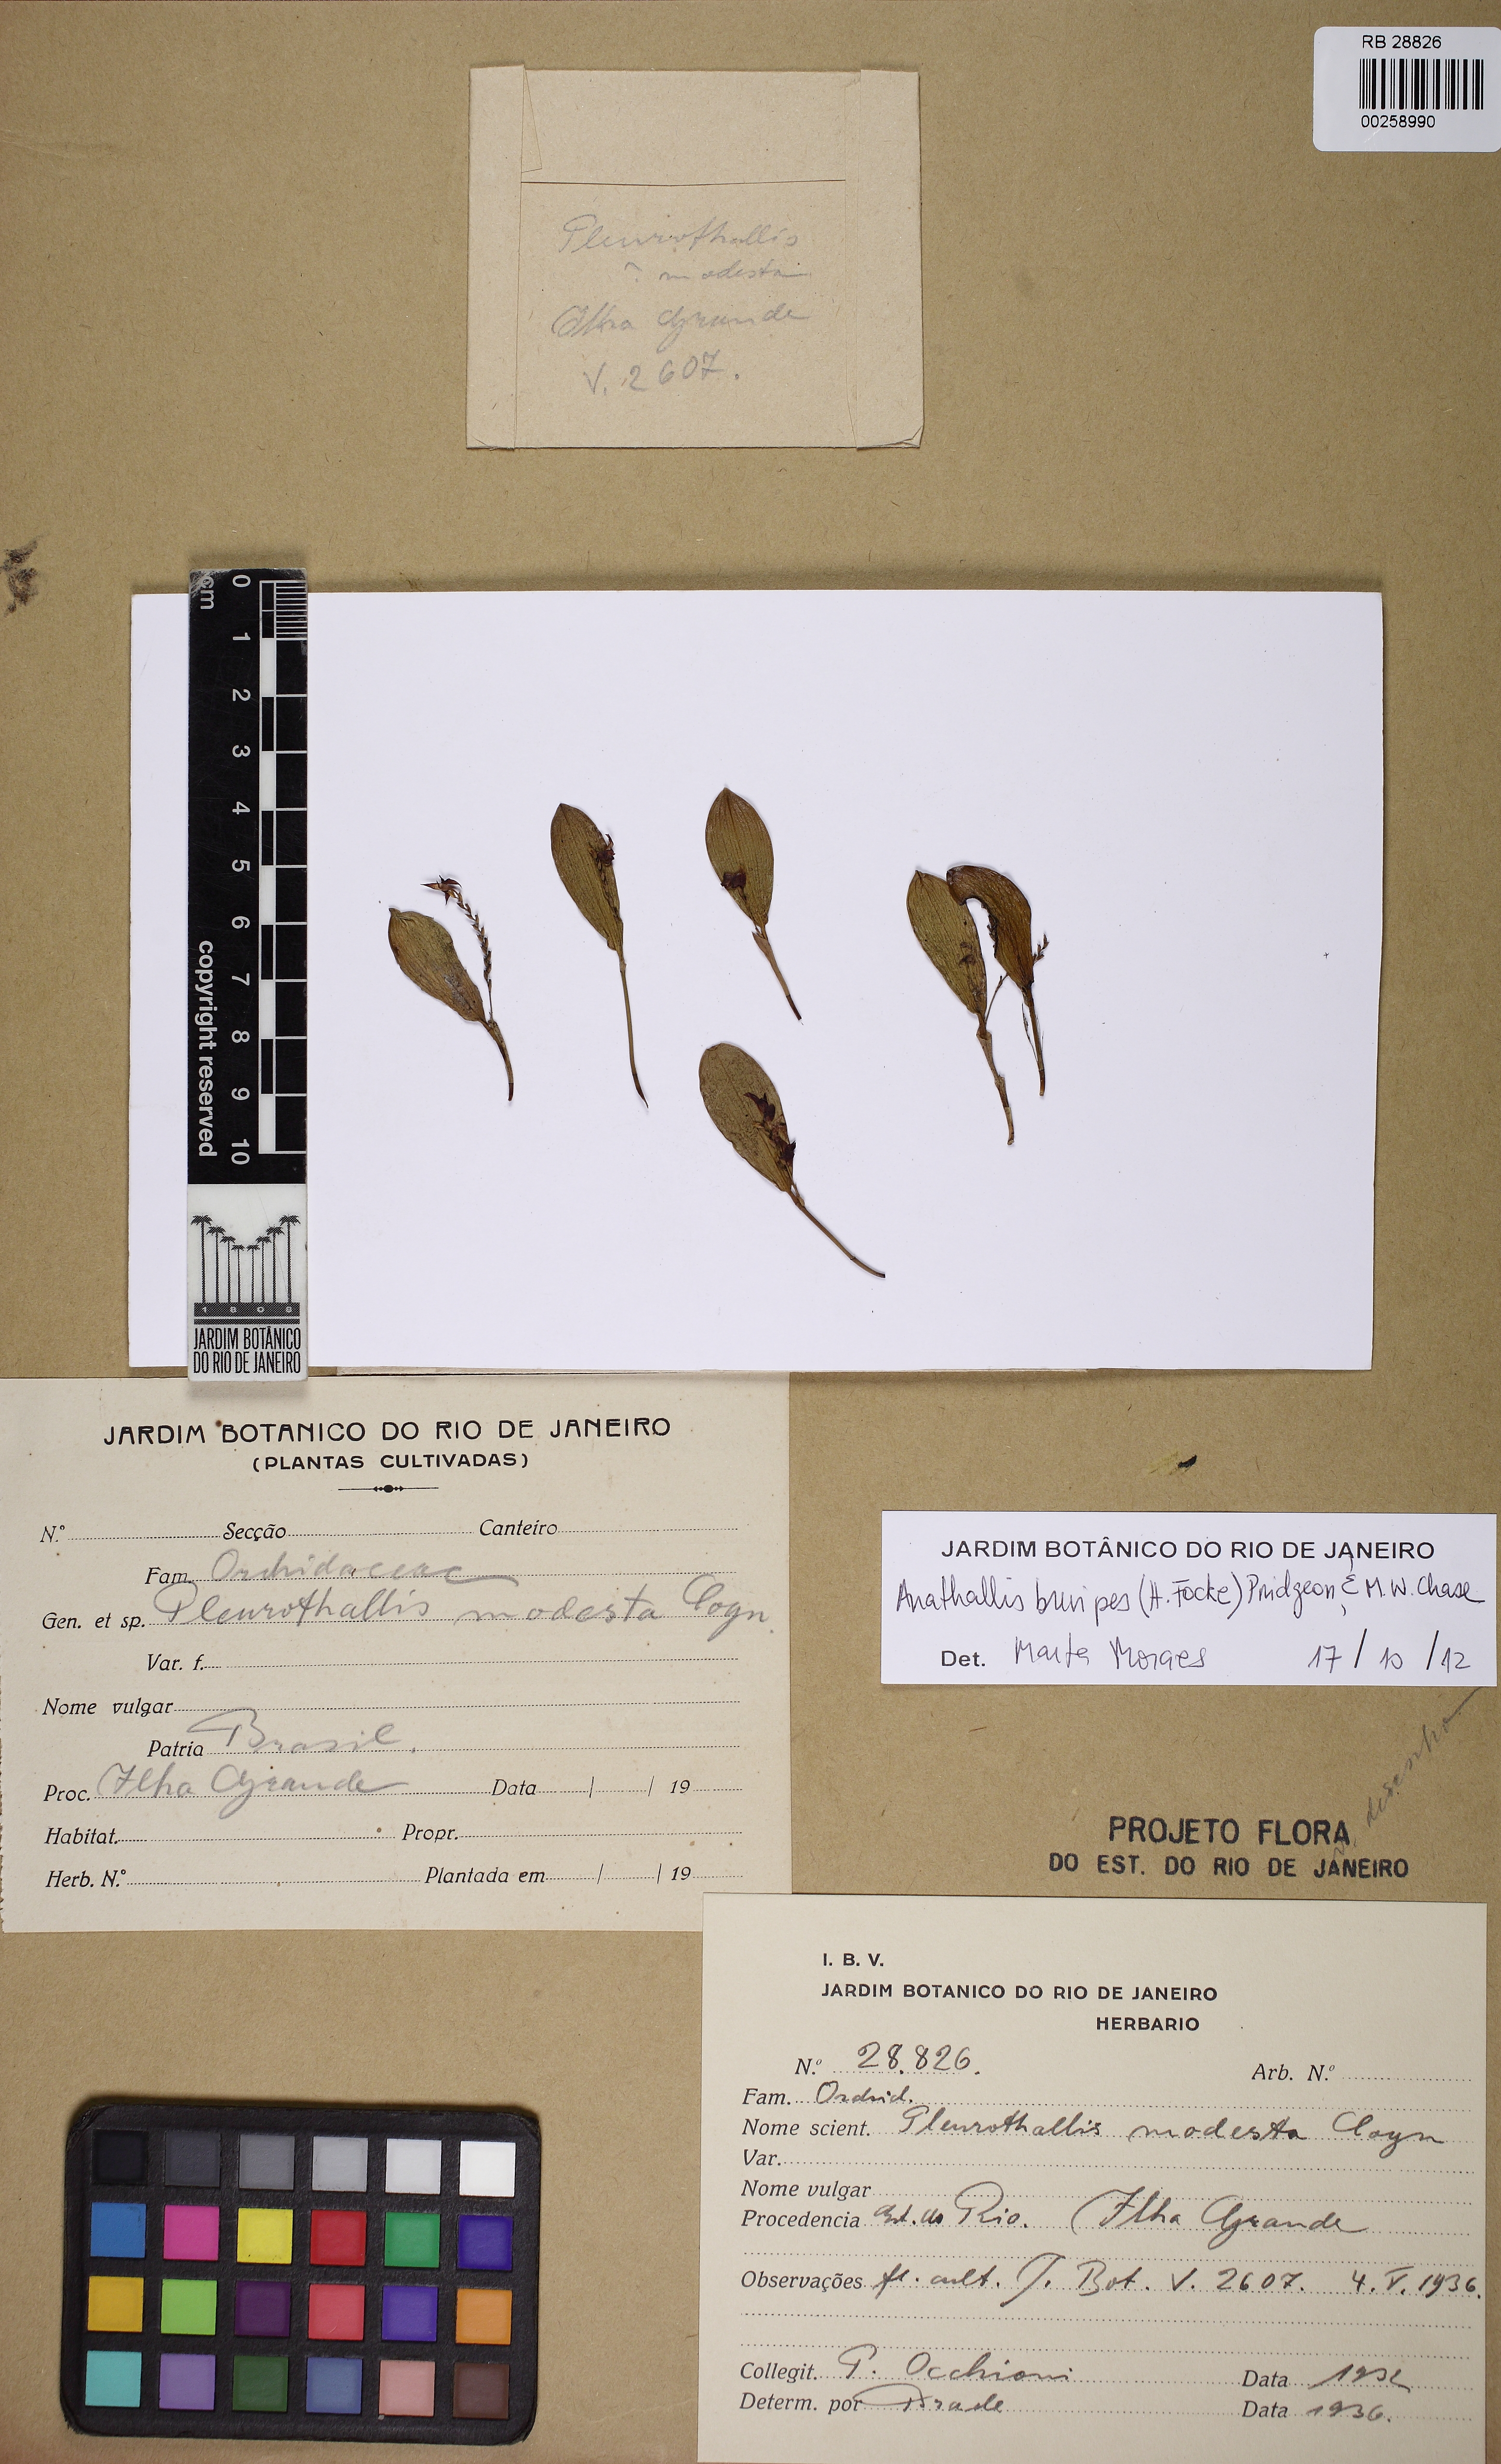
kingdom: Plantae
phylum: Tracheophyta
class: Liliopsida
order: Asparagales
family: Orchidaceae
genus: Anathallis
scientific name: Anathallis brevipes
